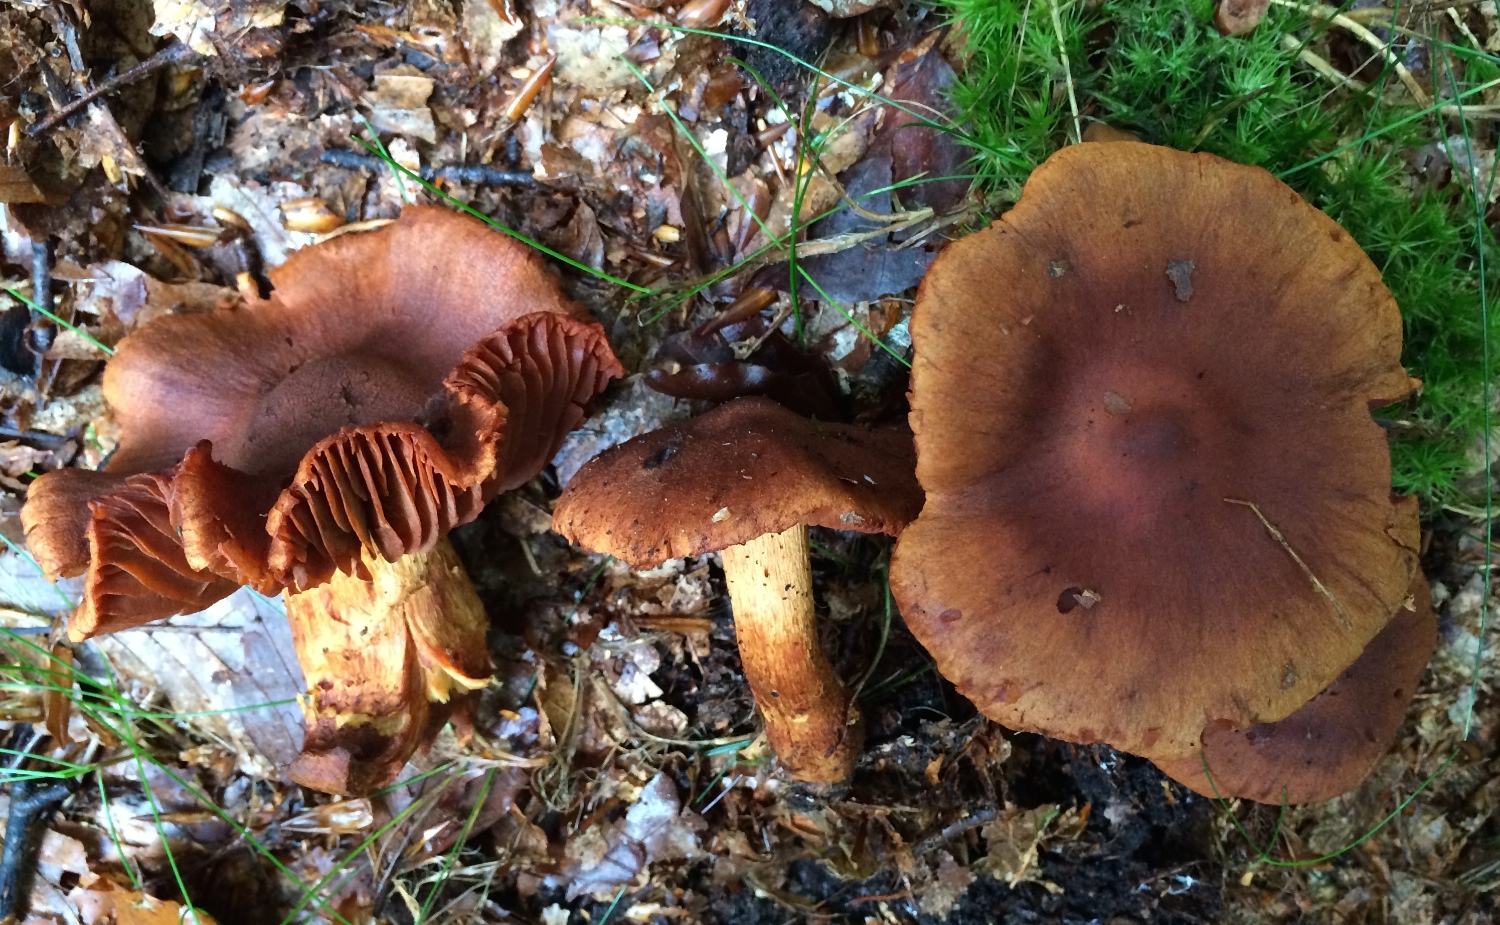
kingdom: Fungi
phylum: Basidiomycota
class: Agaricomycetes
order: Agaricales
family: Cortinariaceae
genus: Cortinarius
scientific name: Cortinarius rubellus
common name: puklet gift-slørhat
